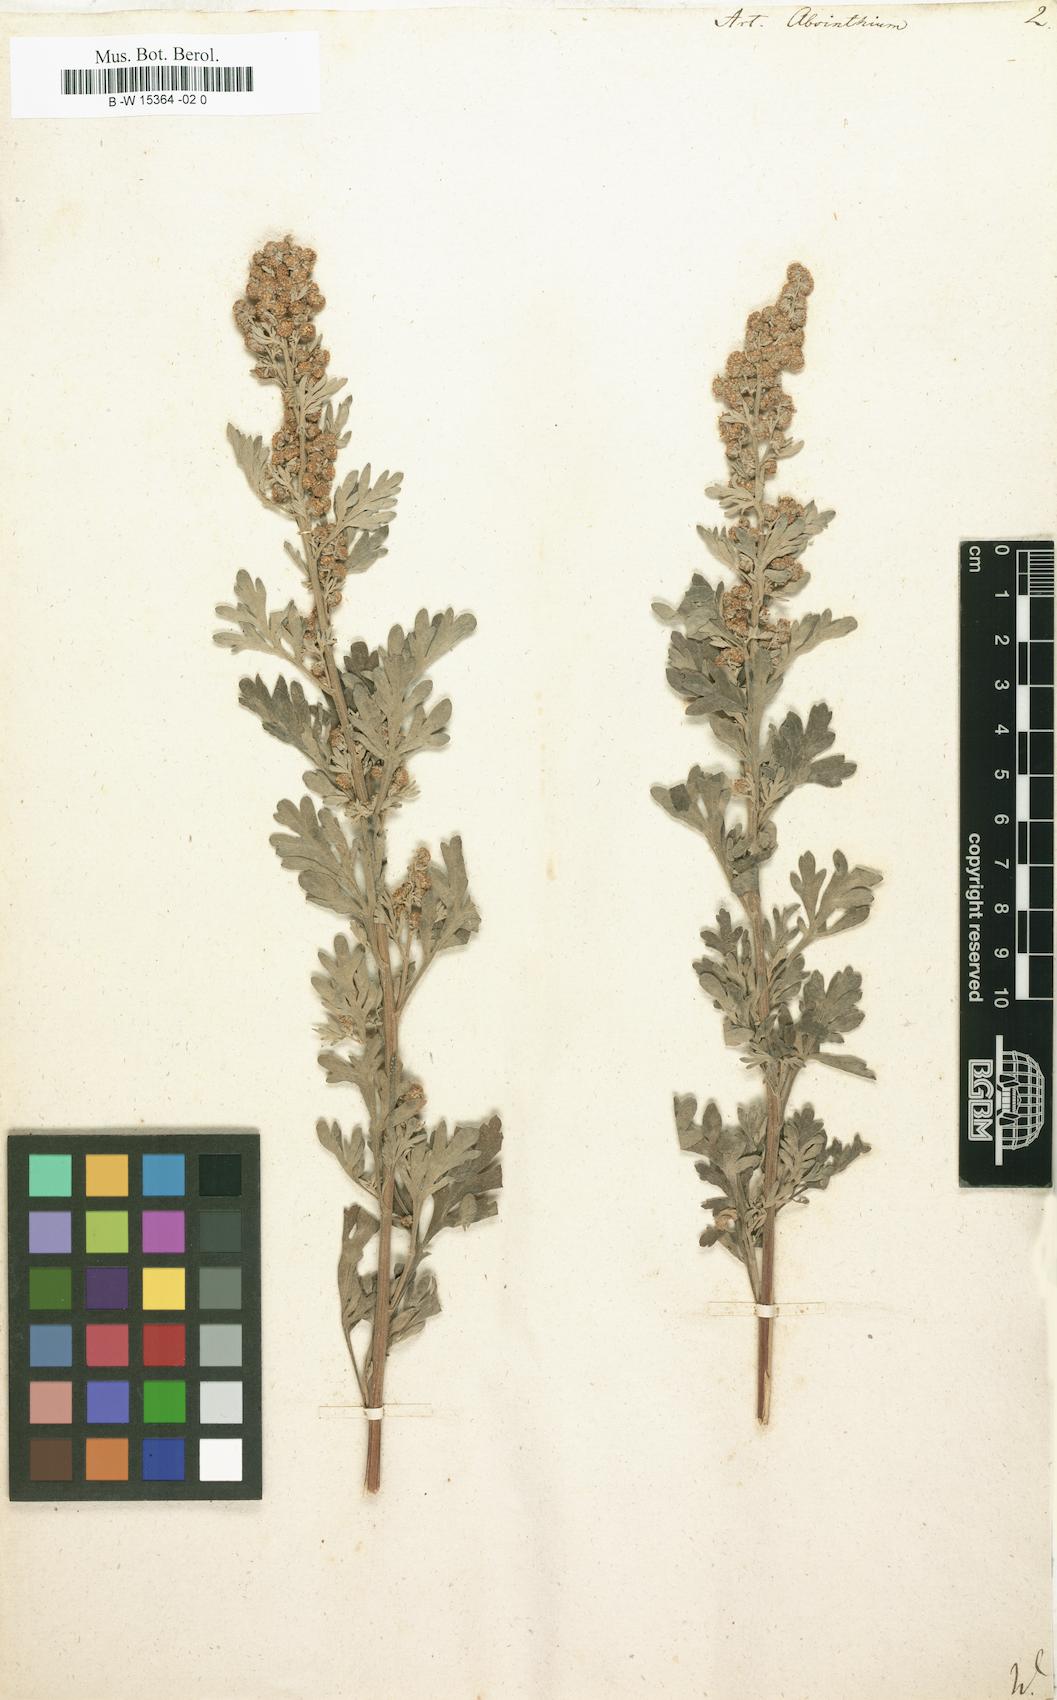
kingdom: Plantae
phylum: Tracheophyta
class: Magnoliopsida
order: Asterales
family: Asteraceae
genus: Artemisia
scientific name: Artemisia absinthium
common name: Wormwood
